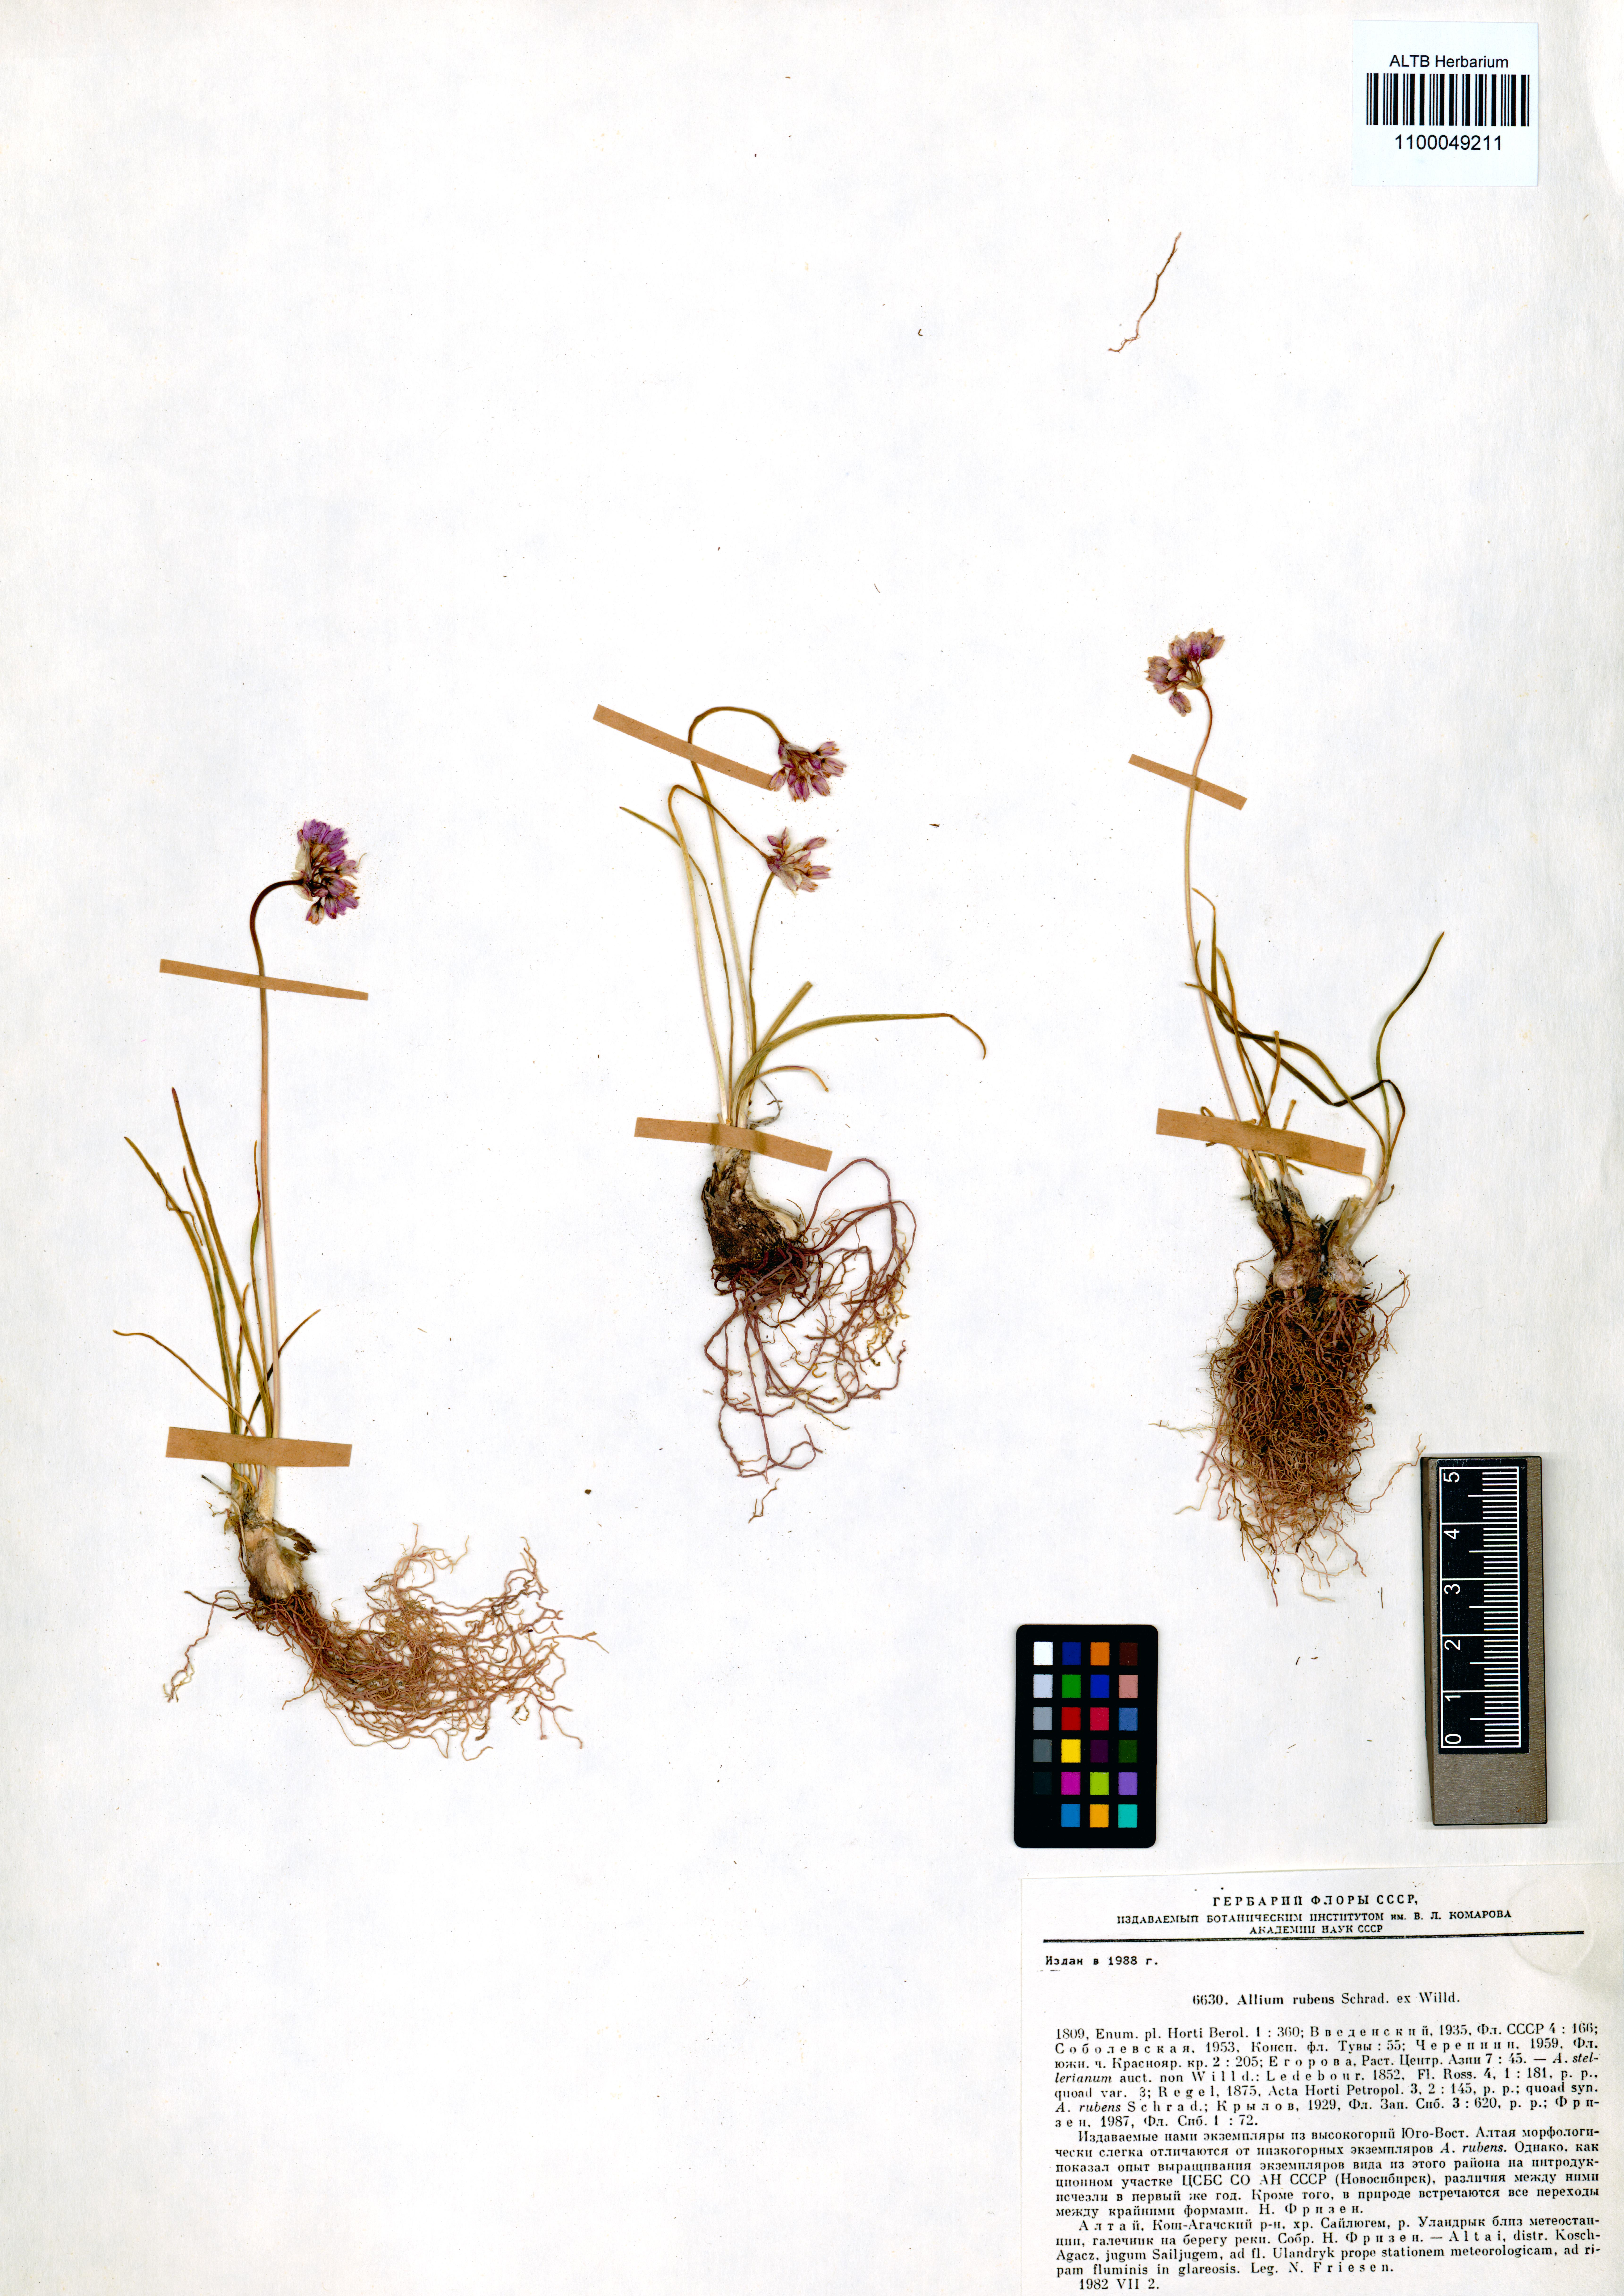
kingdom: Plantae
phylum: Tracheophyta
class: Liliopsida
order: Asparagales
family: Amaryllidaceae
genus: Allium
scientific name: Allium rubens
